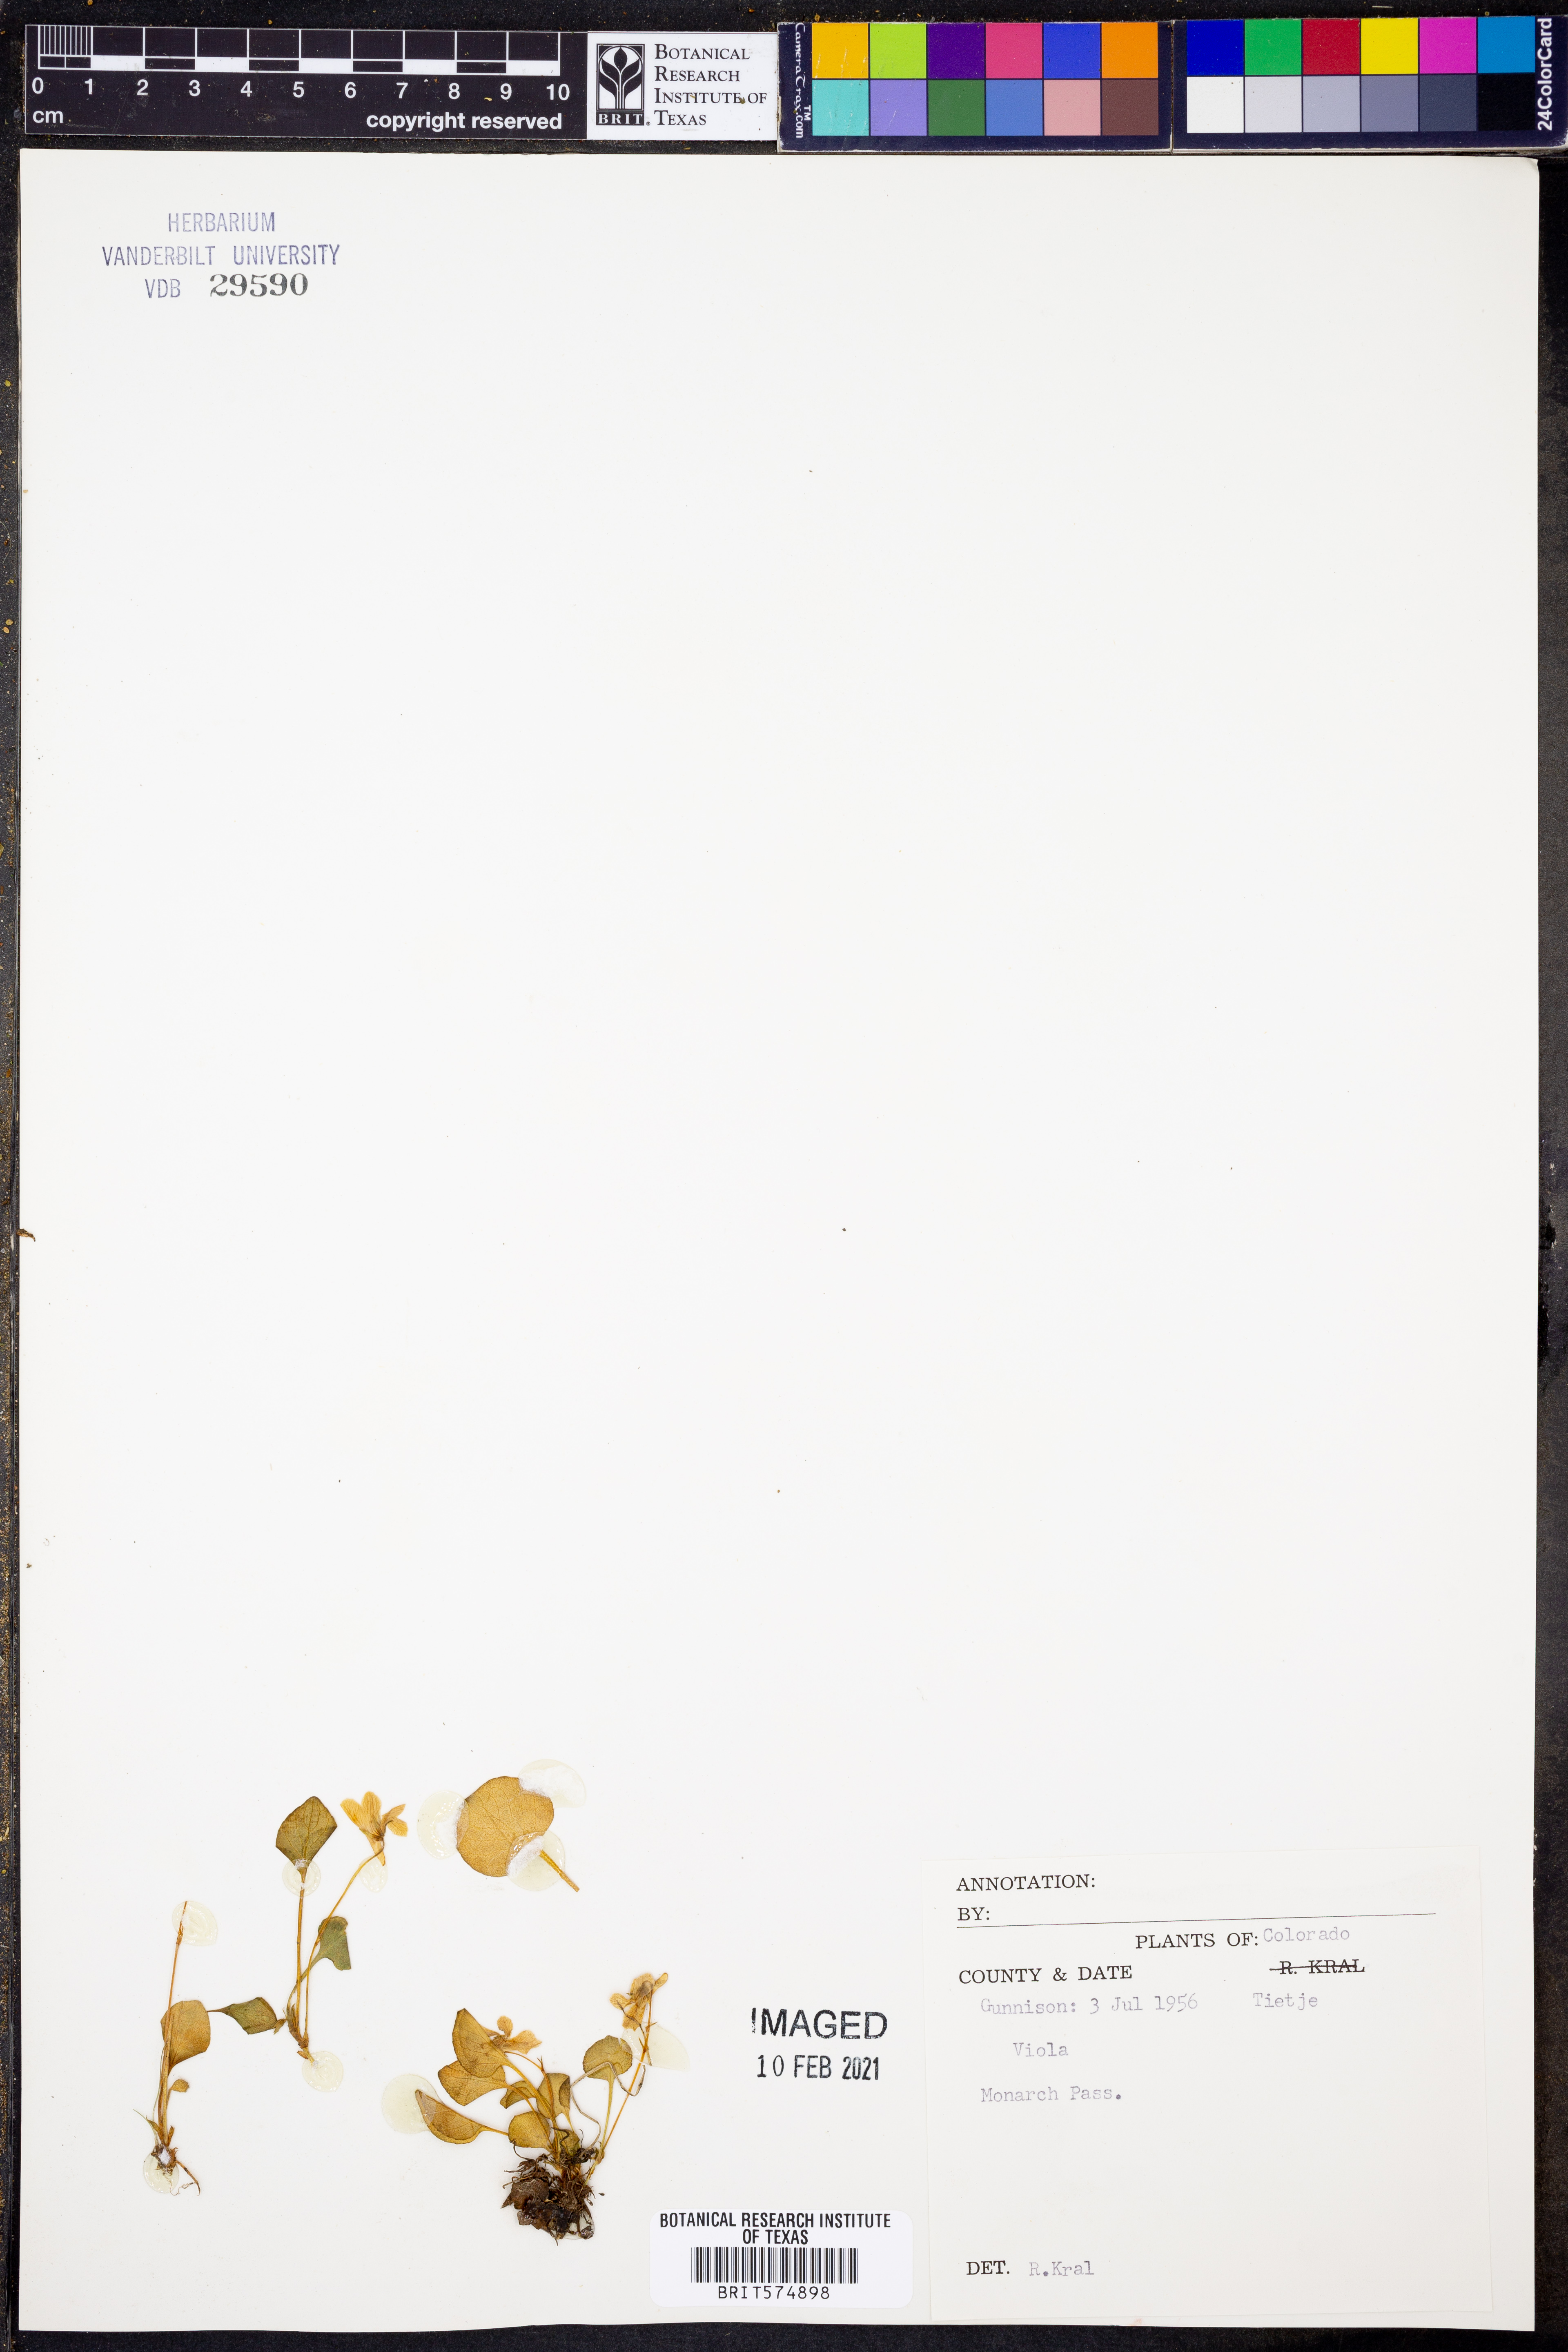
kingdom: Plantae
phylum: Tracheophyta
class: Magnoliopsida
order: Malpighiales
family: Violaceae
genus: Viola
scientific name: Viola
